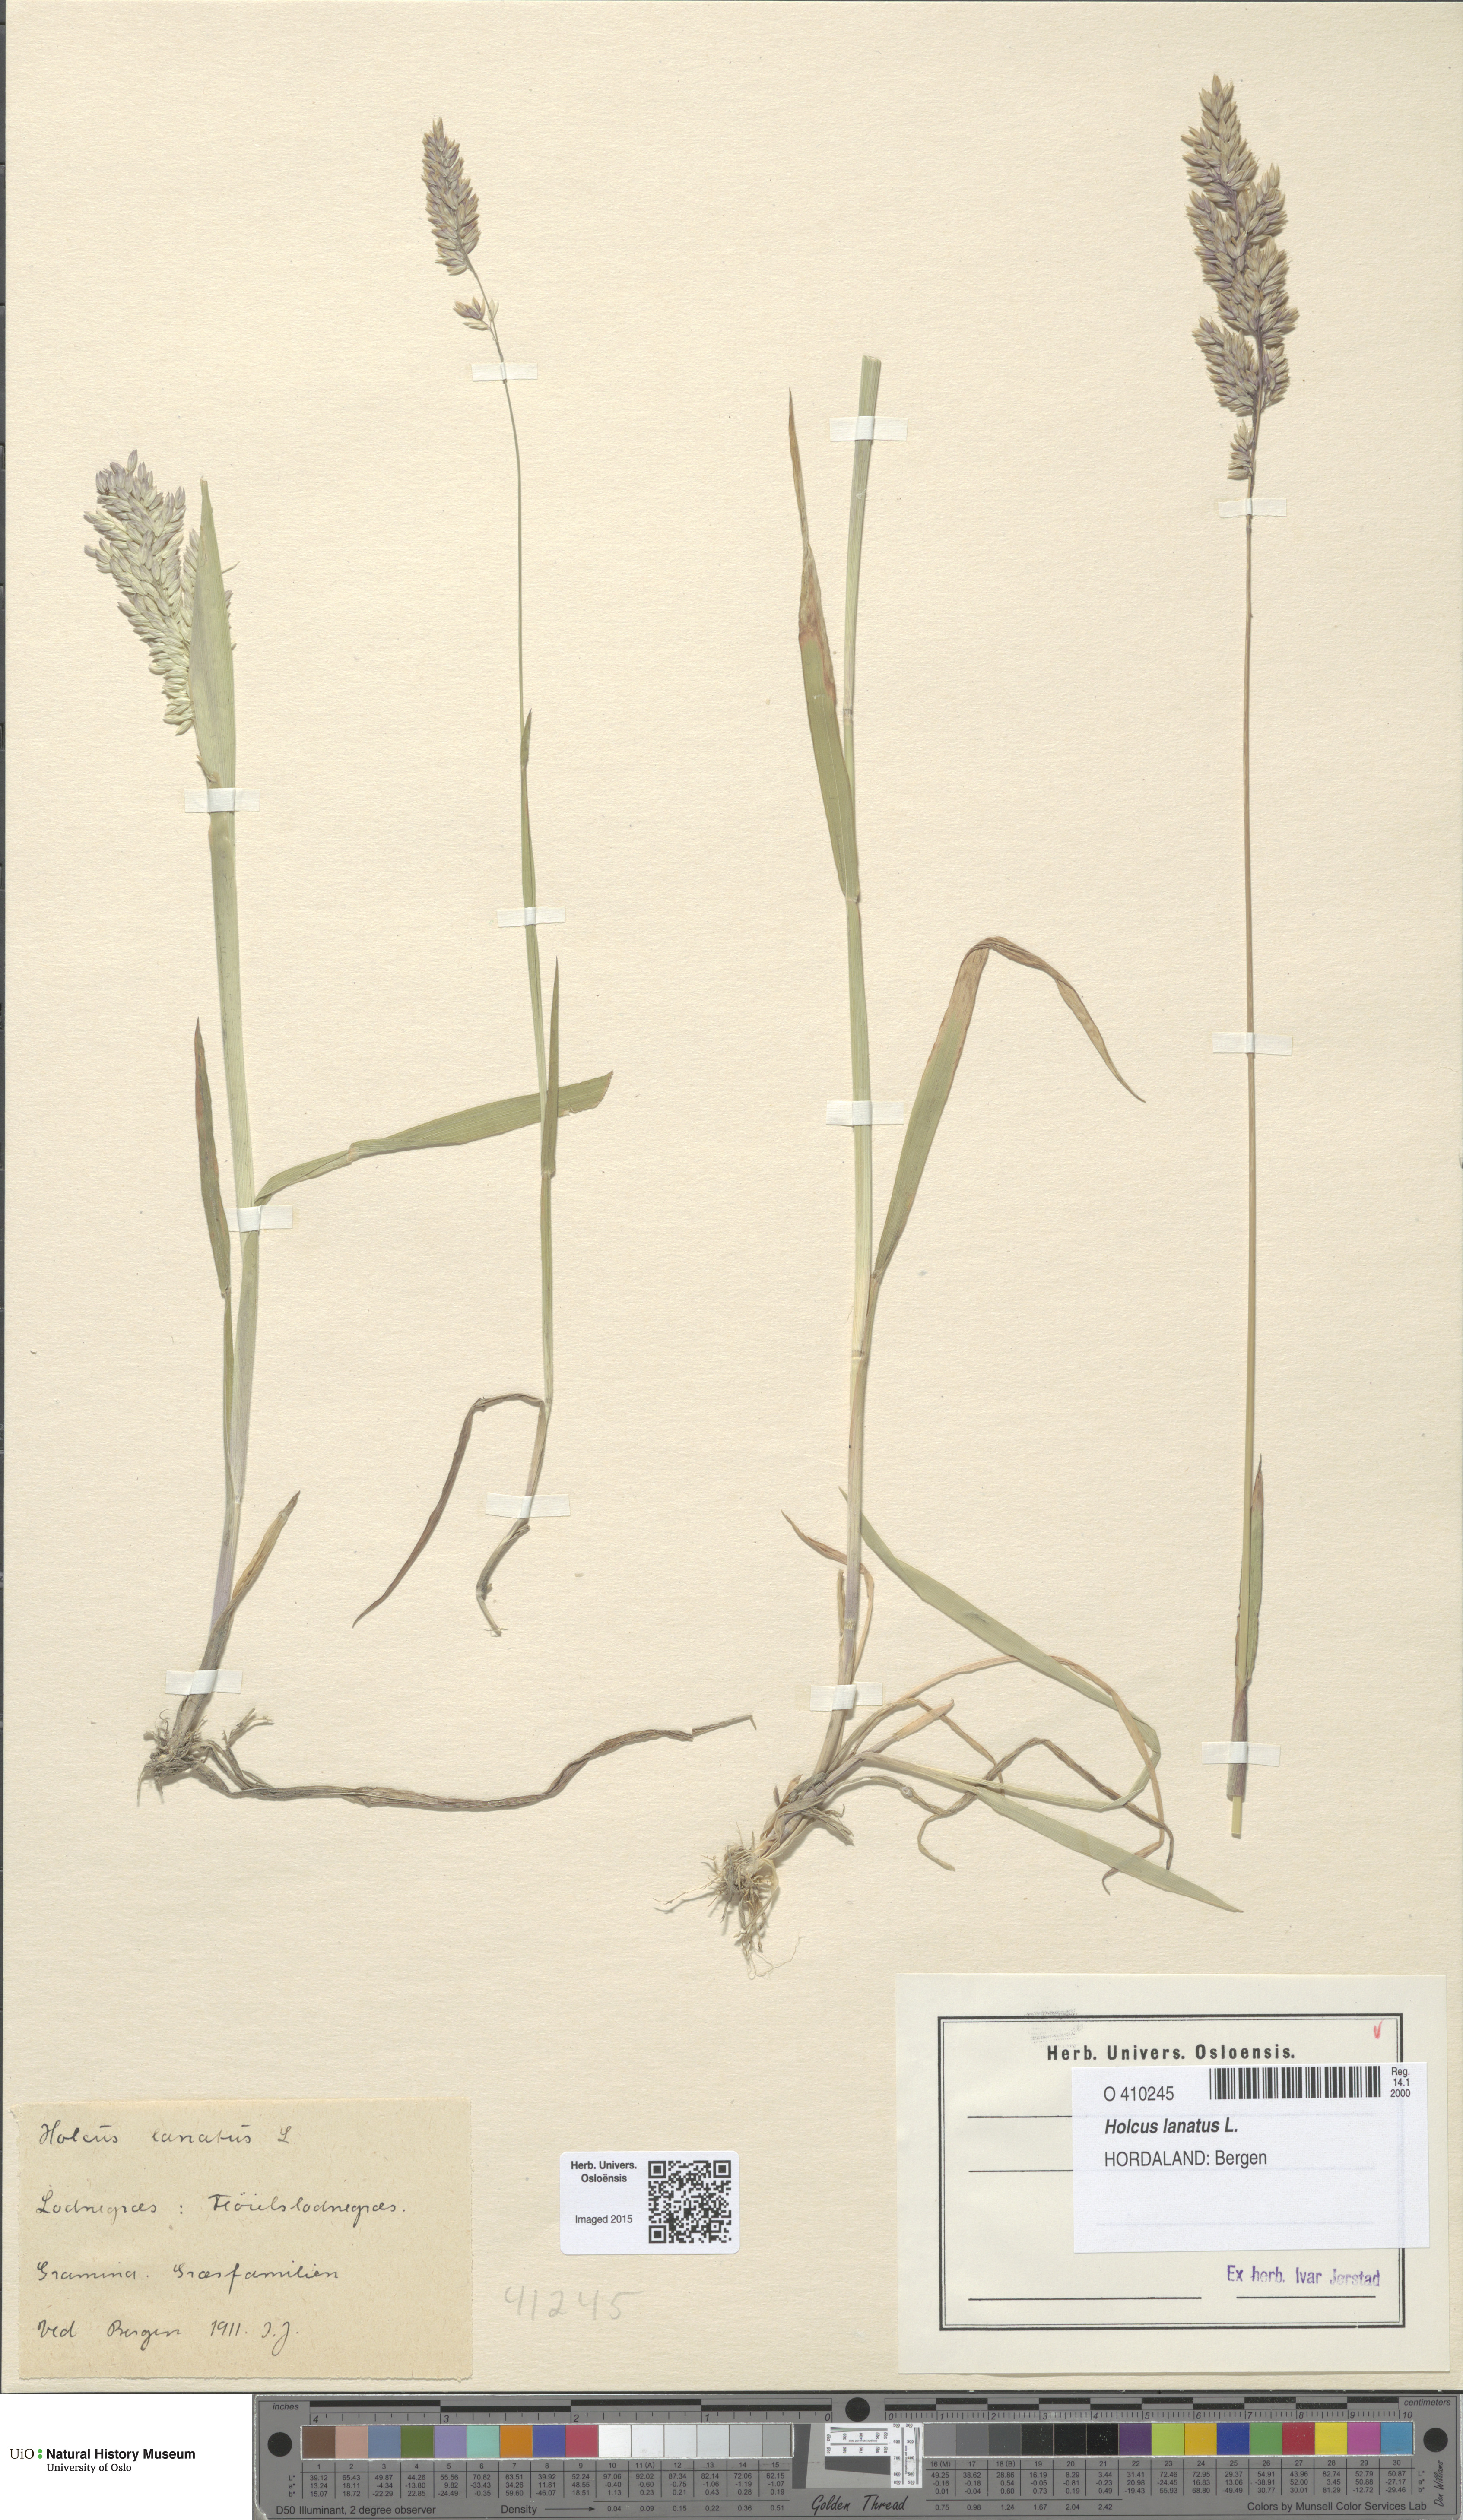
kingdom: Plantae
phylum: Tracheophyta
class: Liliopsida
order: Poales
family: Poaceae
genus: Holcus
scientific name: Holcus lanatus
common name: Yorkshire-fog
